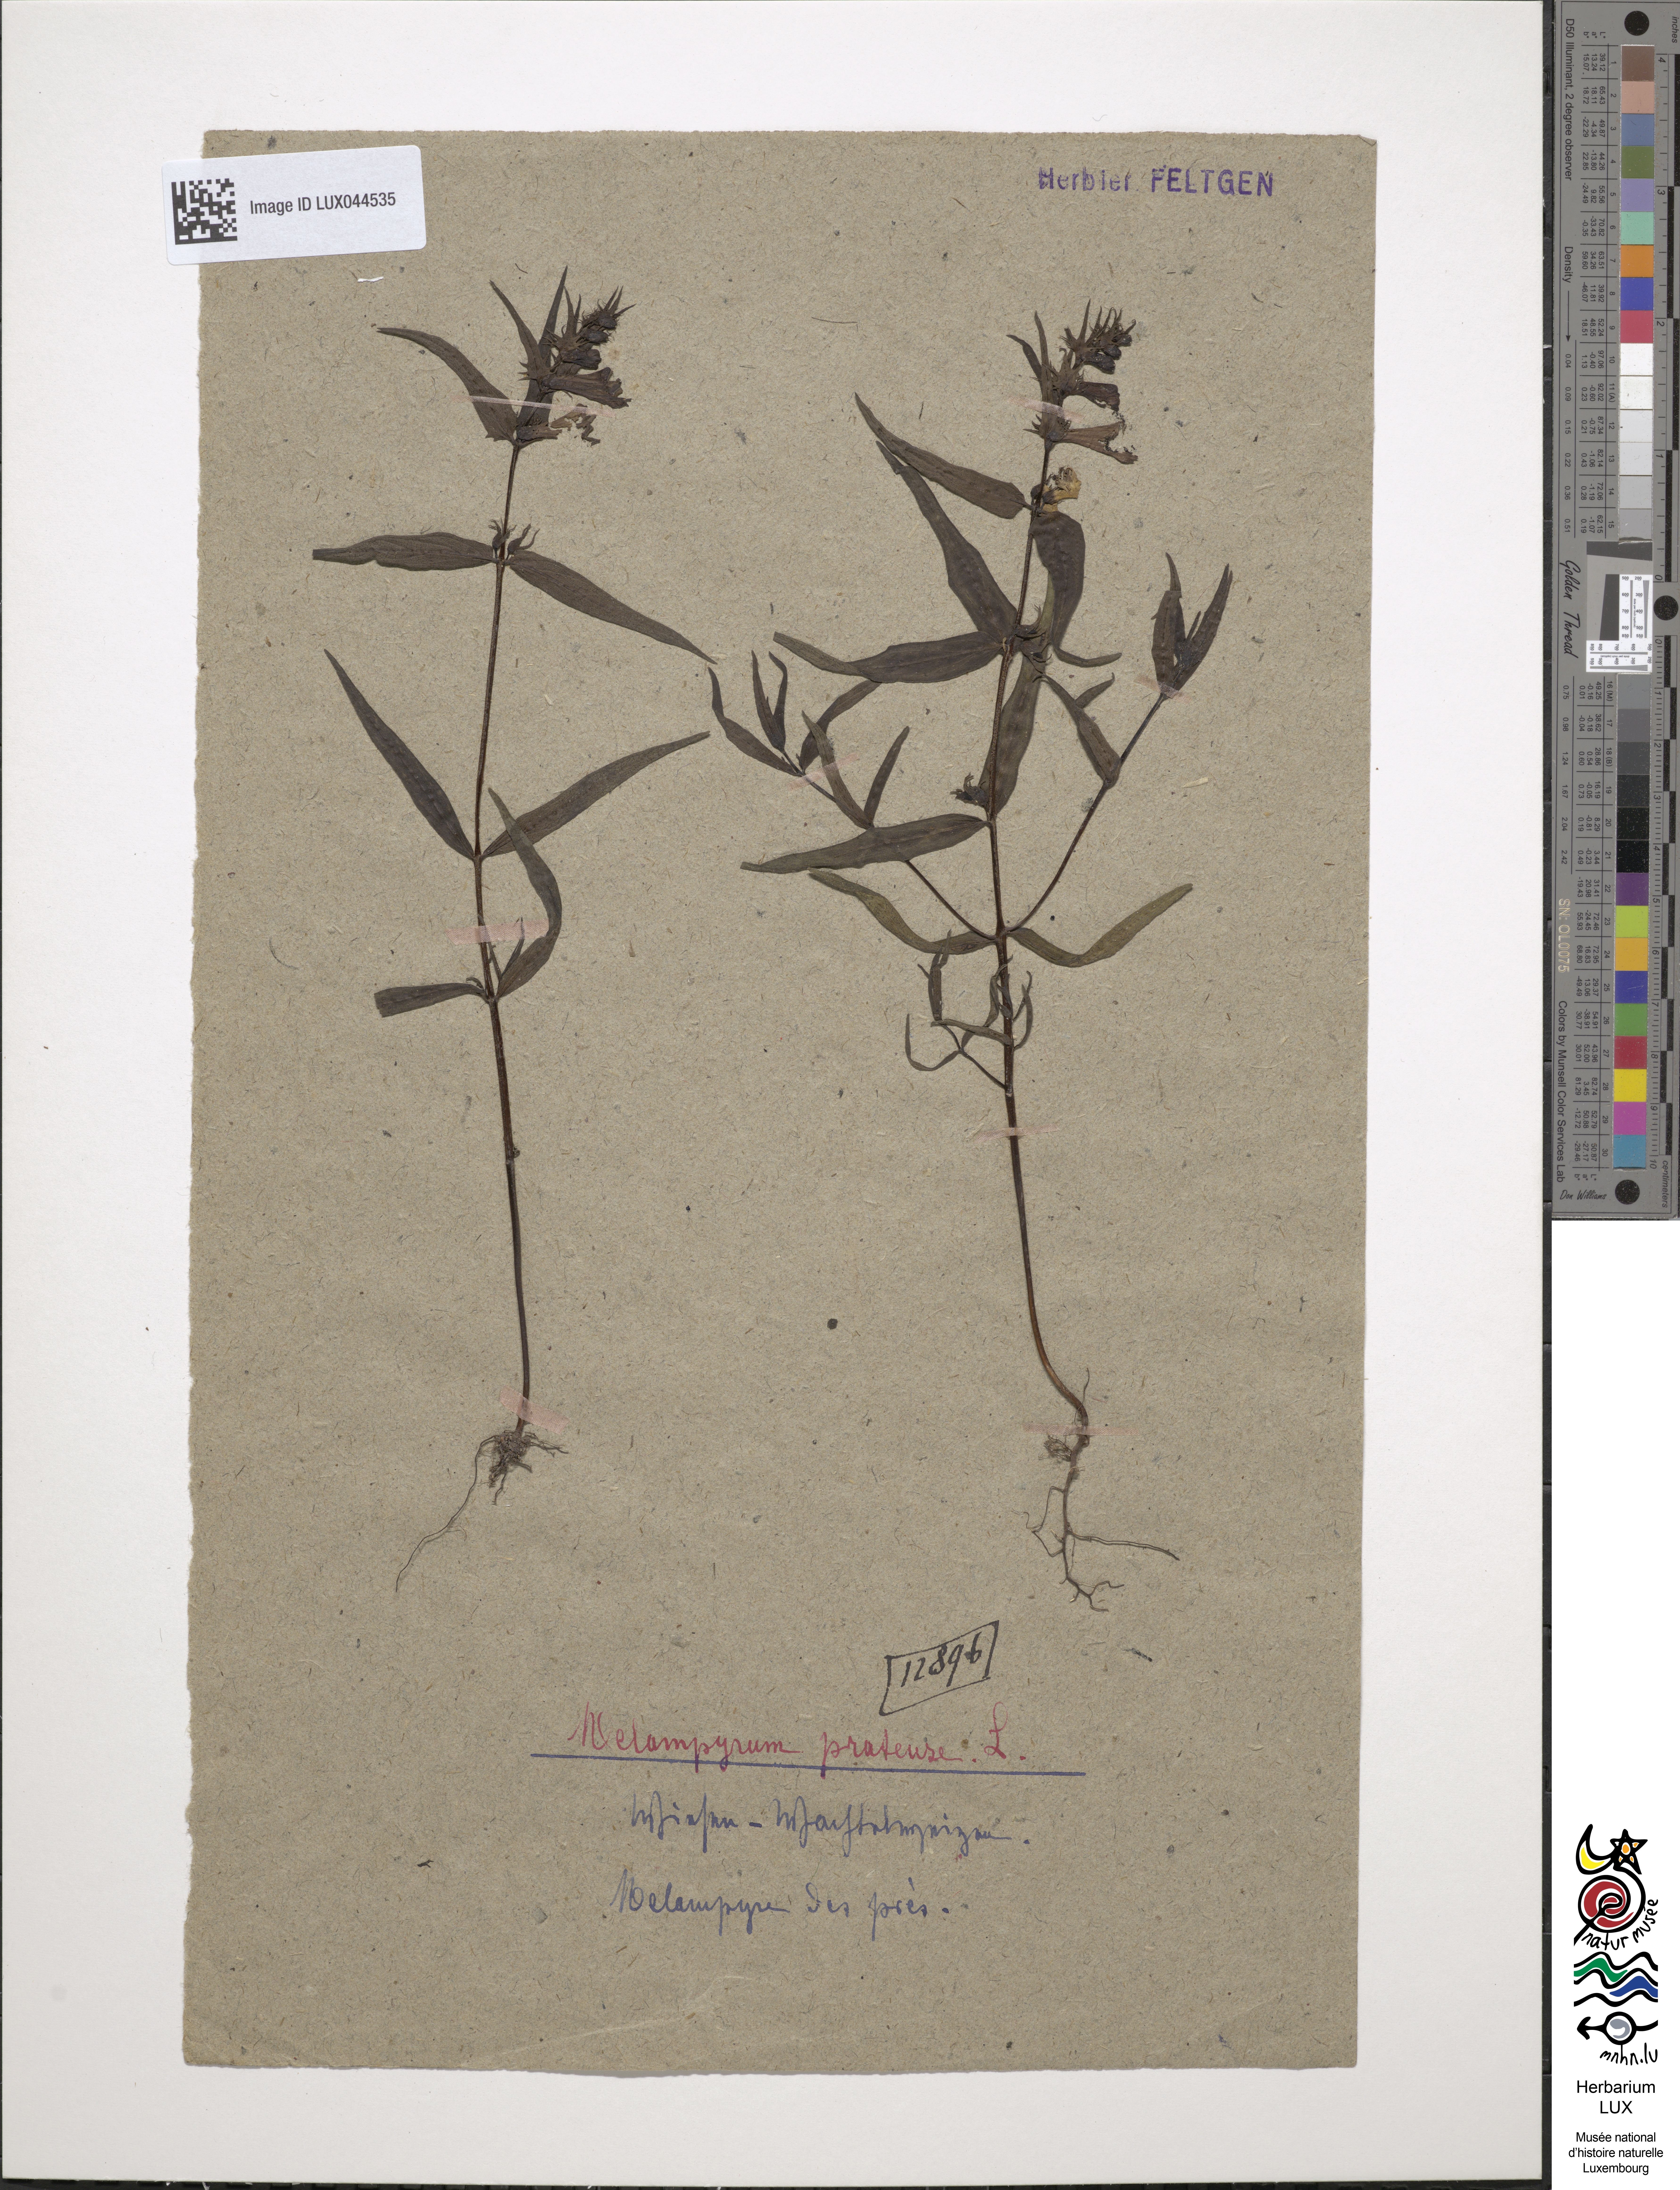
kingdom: Plantae
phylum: Tracheophyta
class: Magnoliopsida
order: Lamiales
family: Orobanchaceae
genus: Melampyrum
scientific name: Melampyrum pratense
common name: Common cow-wheat
